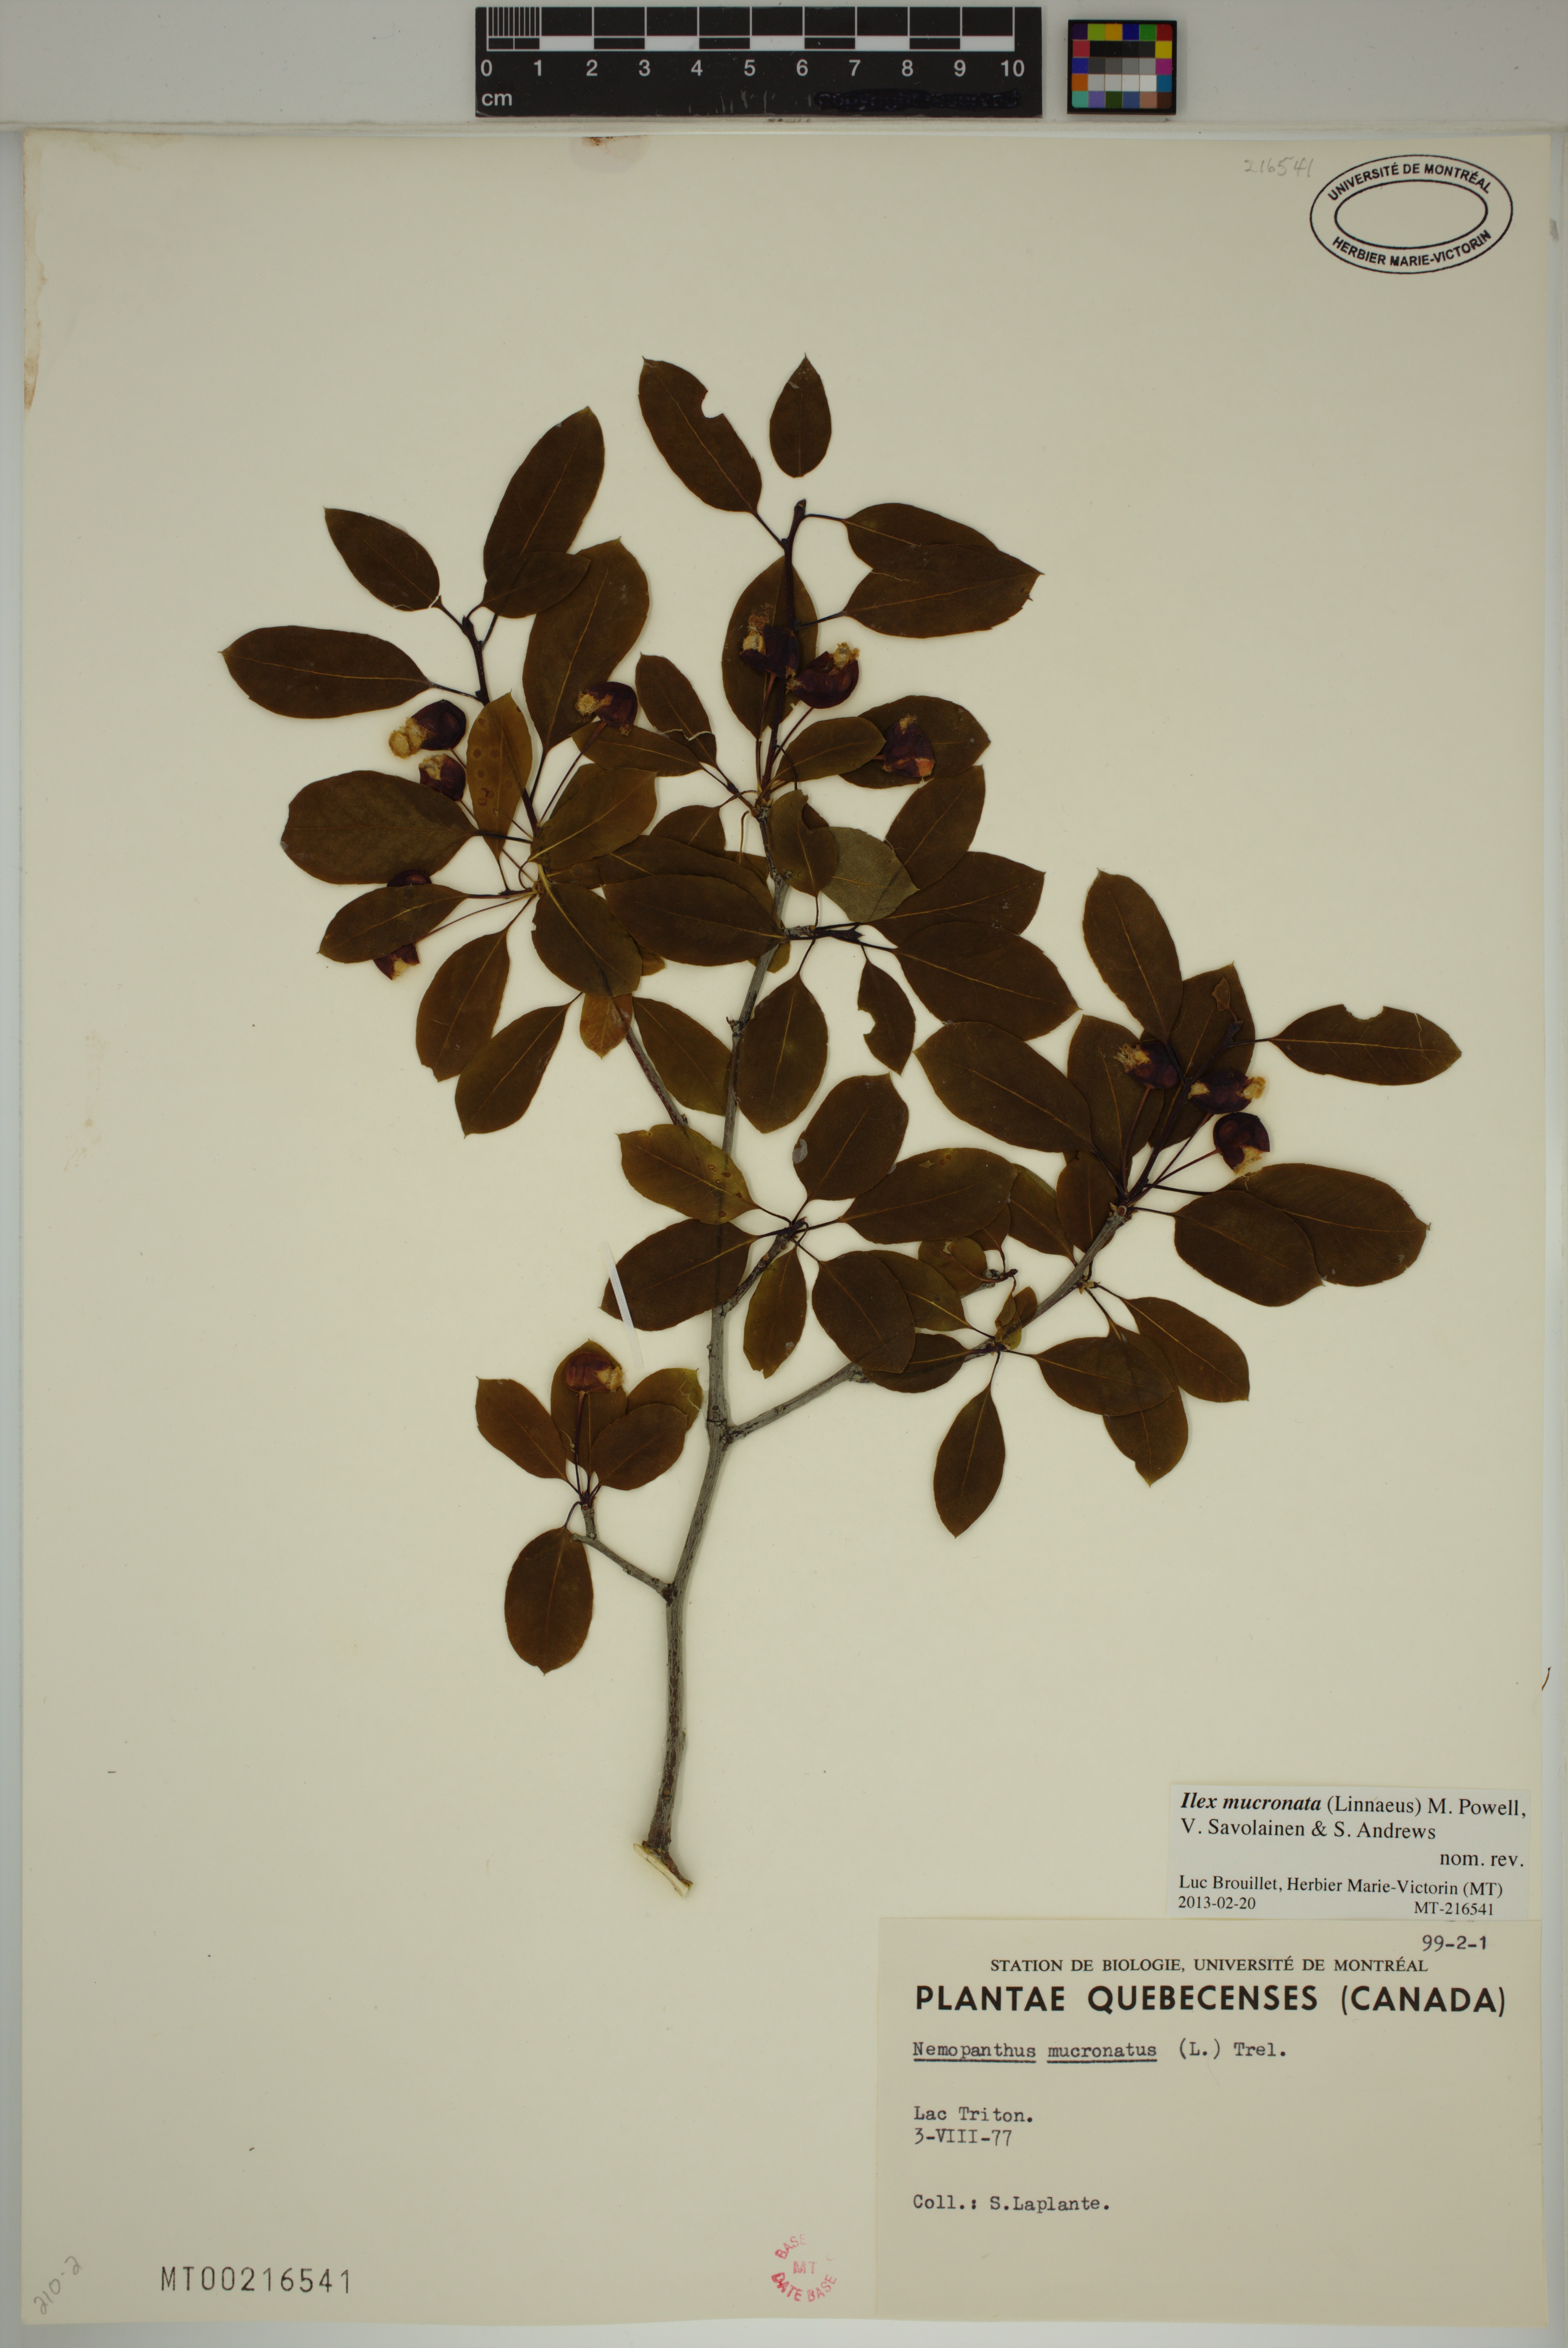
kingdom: Plantae
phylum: Tracheophyta
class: Magnoliopsida
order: Aquifoliales
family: Aquifoliaceae
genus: Ilex
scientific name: Ilex mucronata
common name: Catberry
